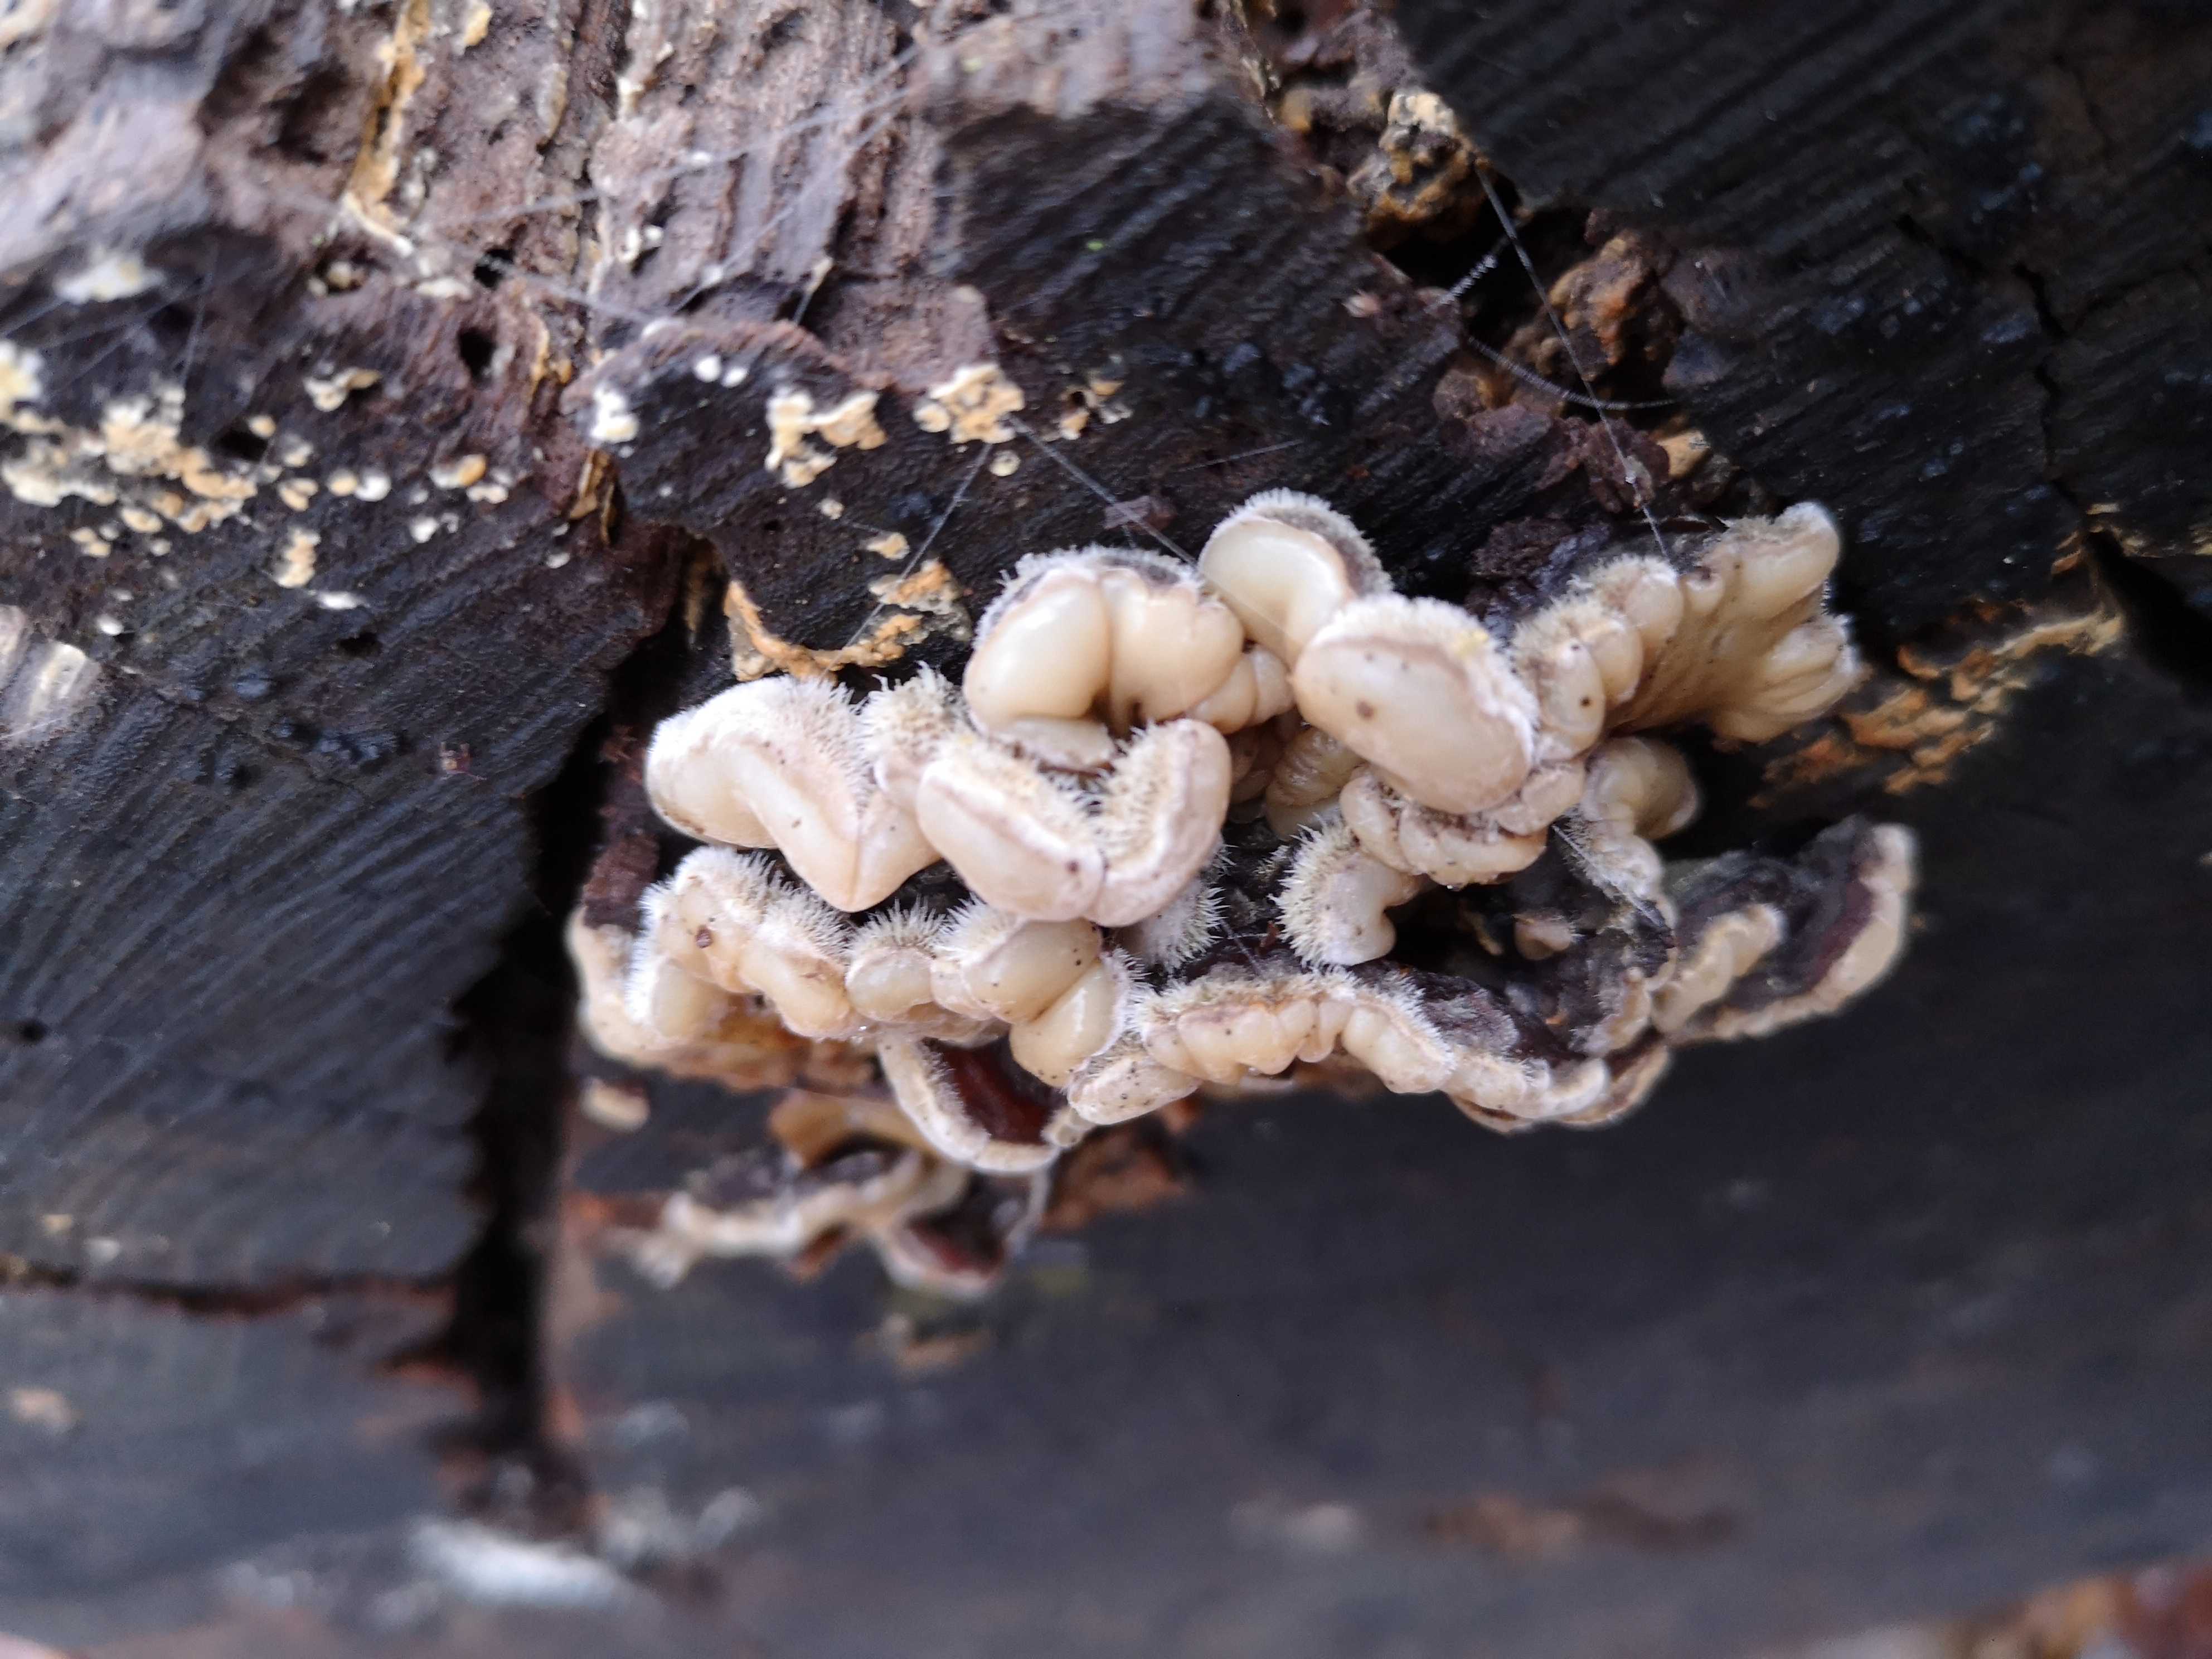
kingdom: Fungi
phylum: Basidiomycota
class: Agaricomycetes
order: Auriculariales
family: Auriculariaceae
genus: Auricularia
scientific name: Auricularia mesenterica
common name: håret judasøre
